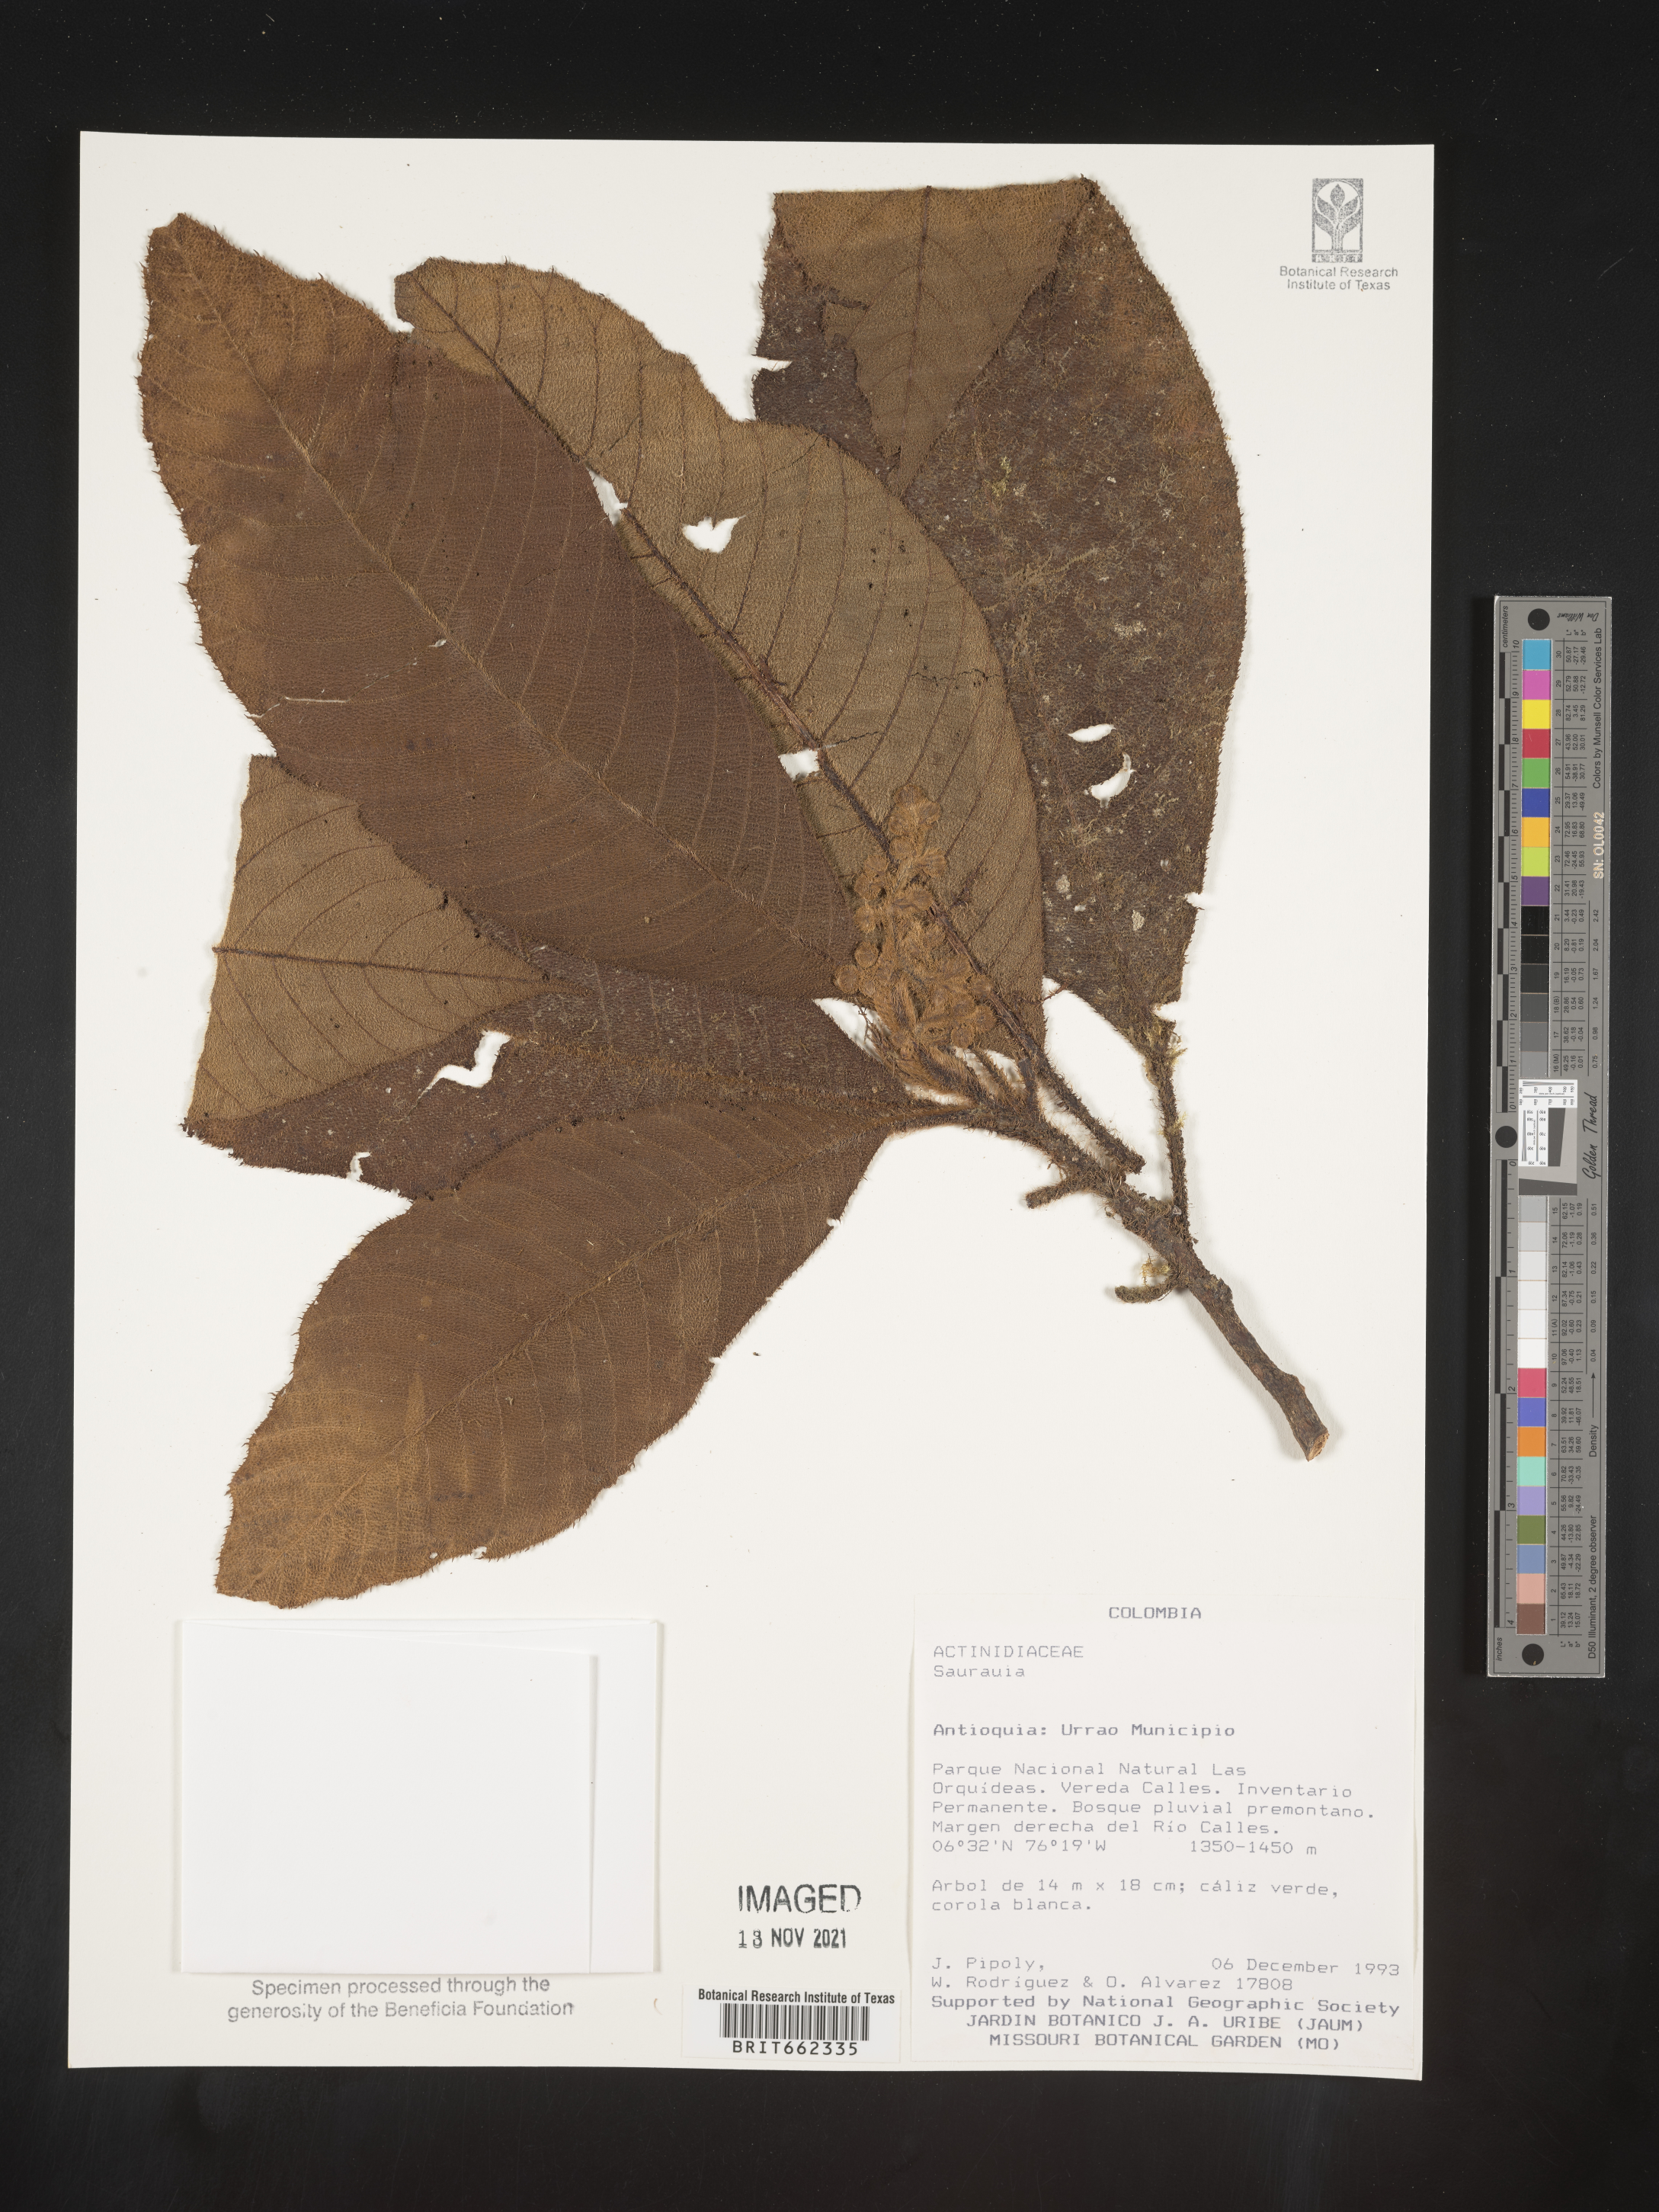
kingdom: Plantae
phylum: Tracheophyta
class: Magnoliopsida
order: Ericales
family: Actinidiaceae
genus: Saurauia
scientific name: Saurauia
